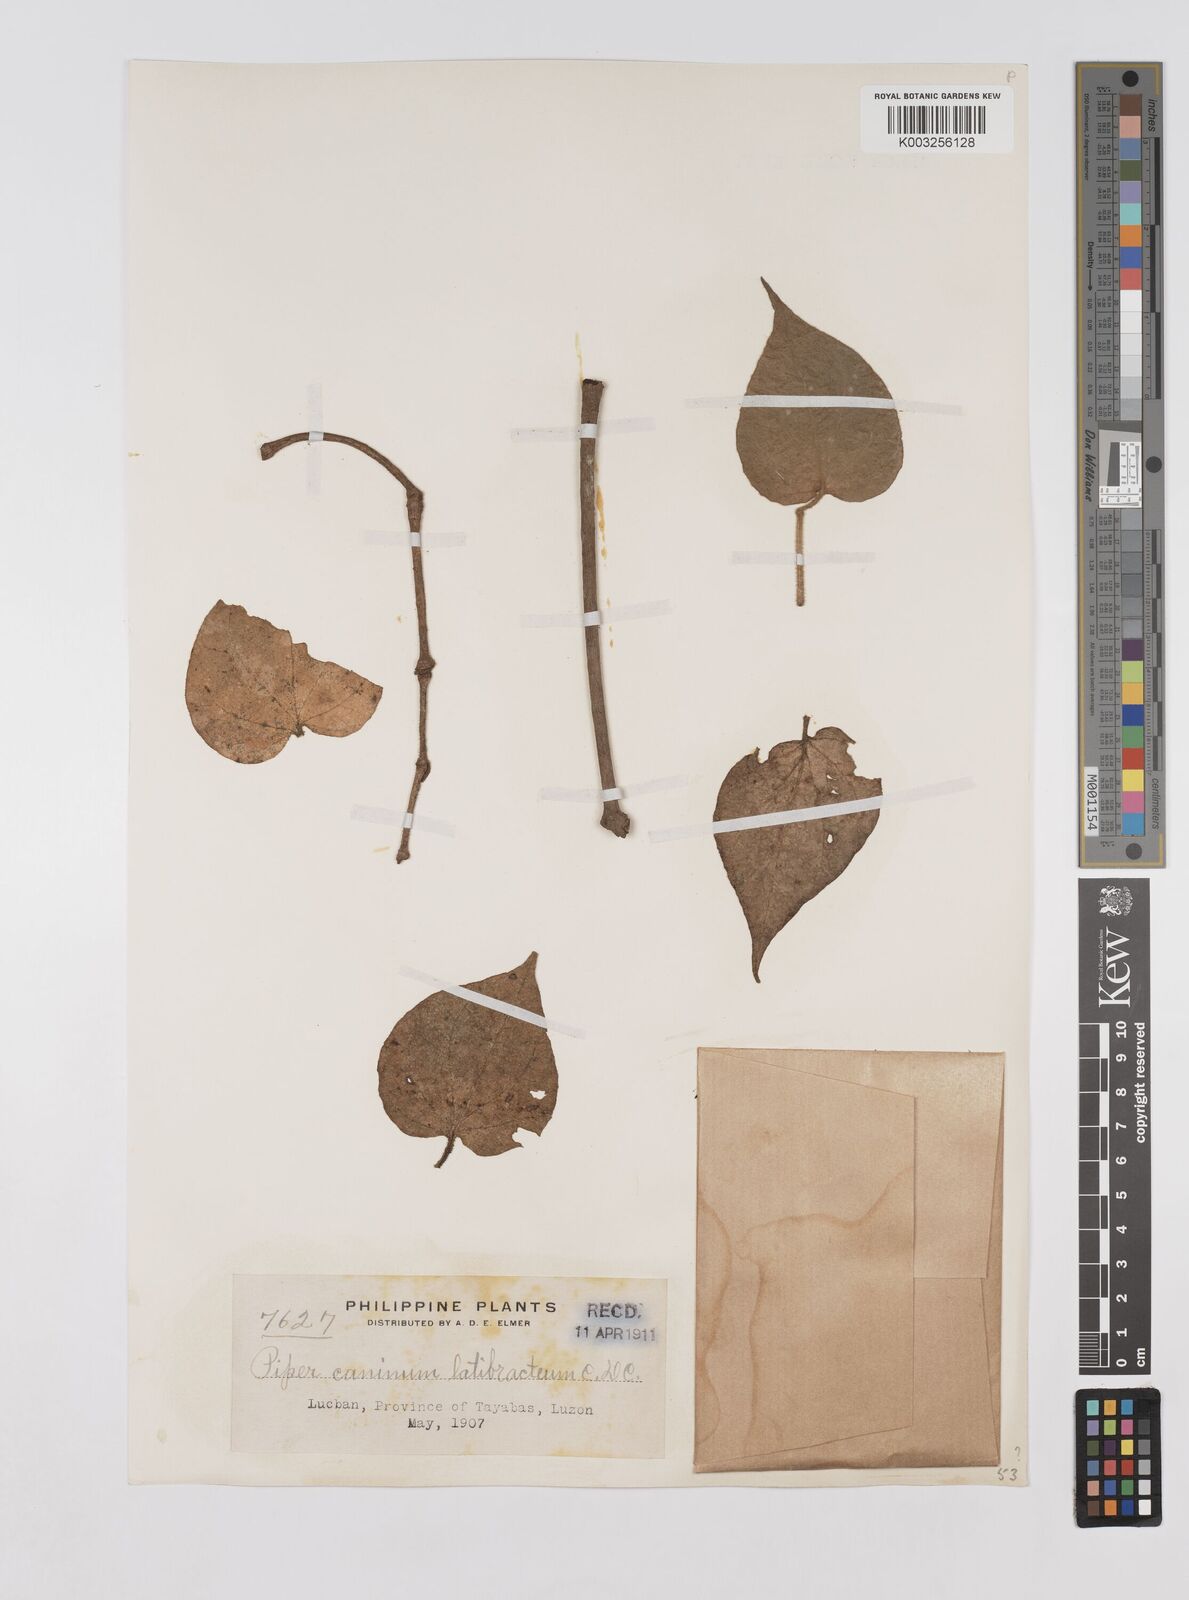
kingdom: Plantae
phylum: Tracheophyta
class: Magnoliopsida
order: Piperales
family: Piperaceae
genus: Piper
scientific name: Piper lanatum
